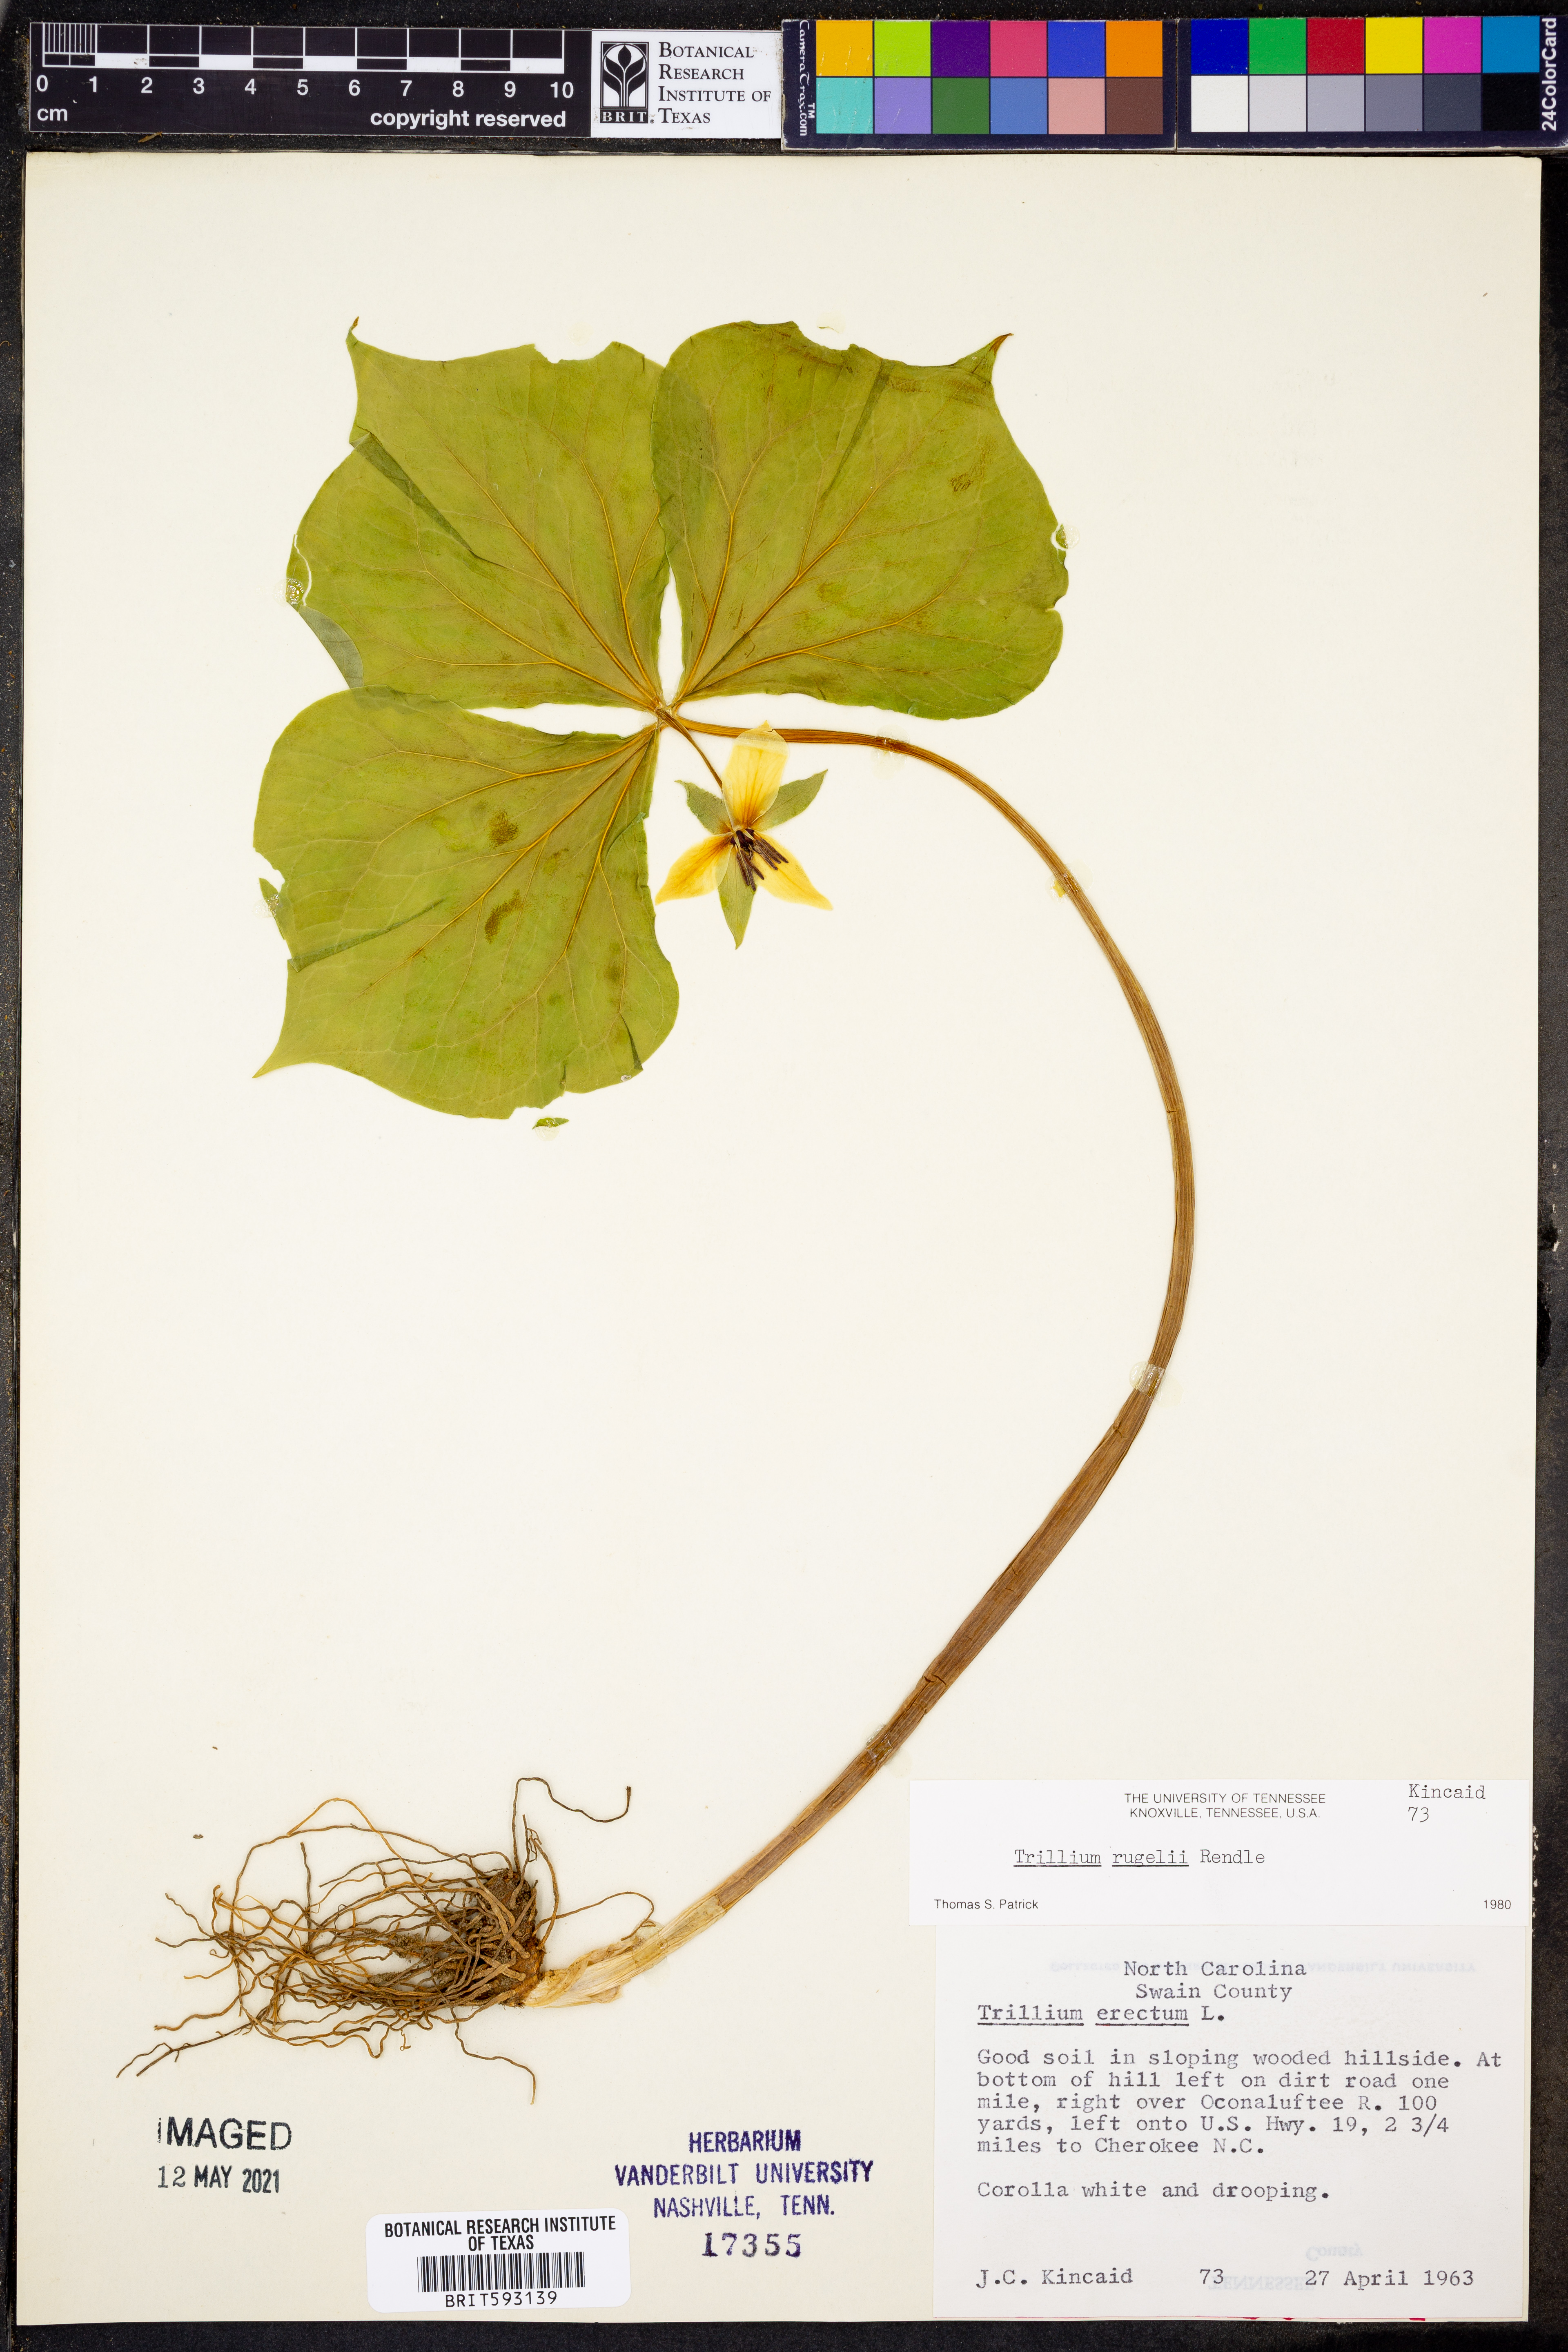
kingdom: Plantae
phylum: Tracheophyta
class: Liliopsida
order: Liliales
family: Melanthiaceae
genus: Trillium
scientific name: Trillium rugelii
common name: Ill-scented trillium
